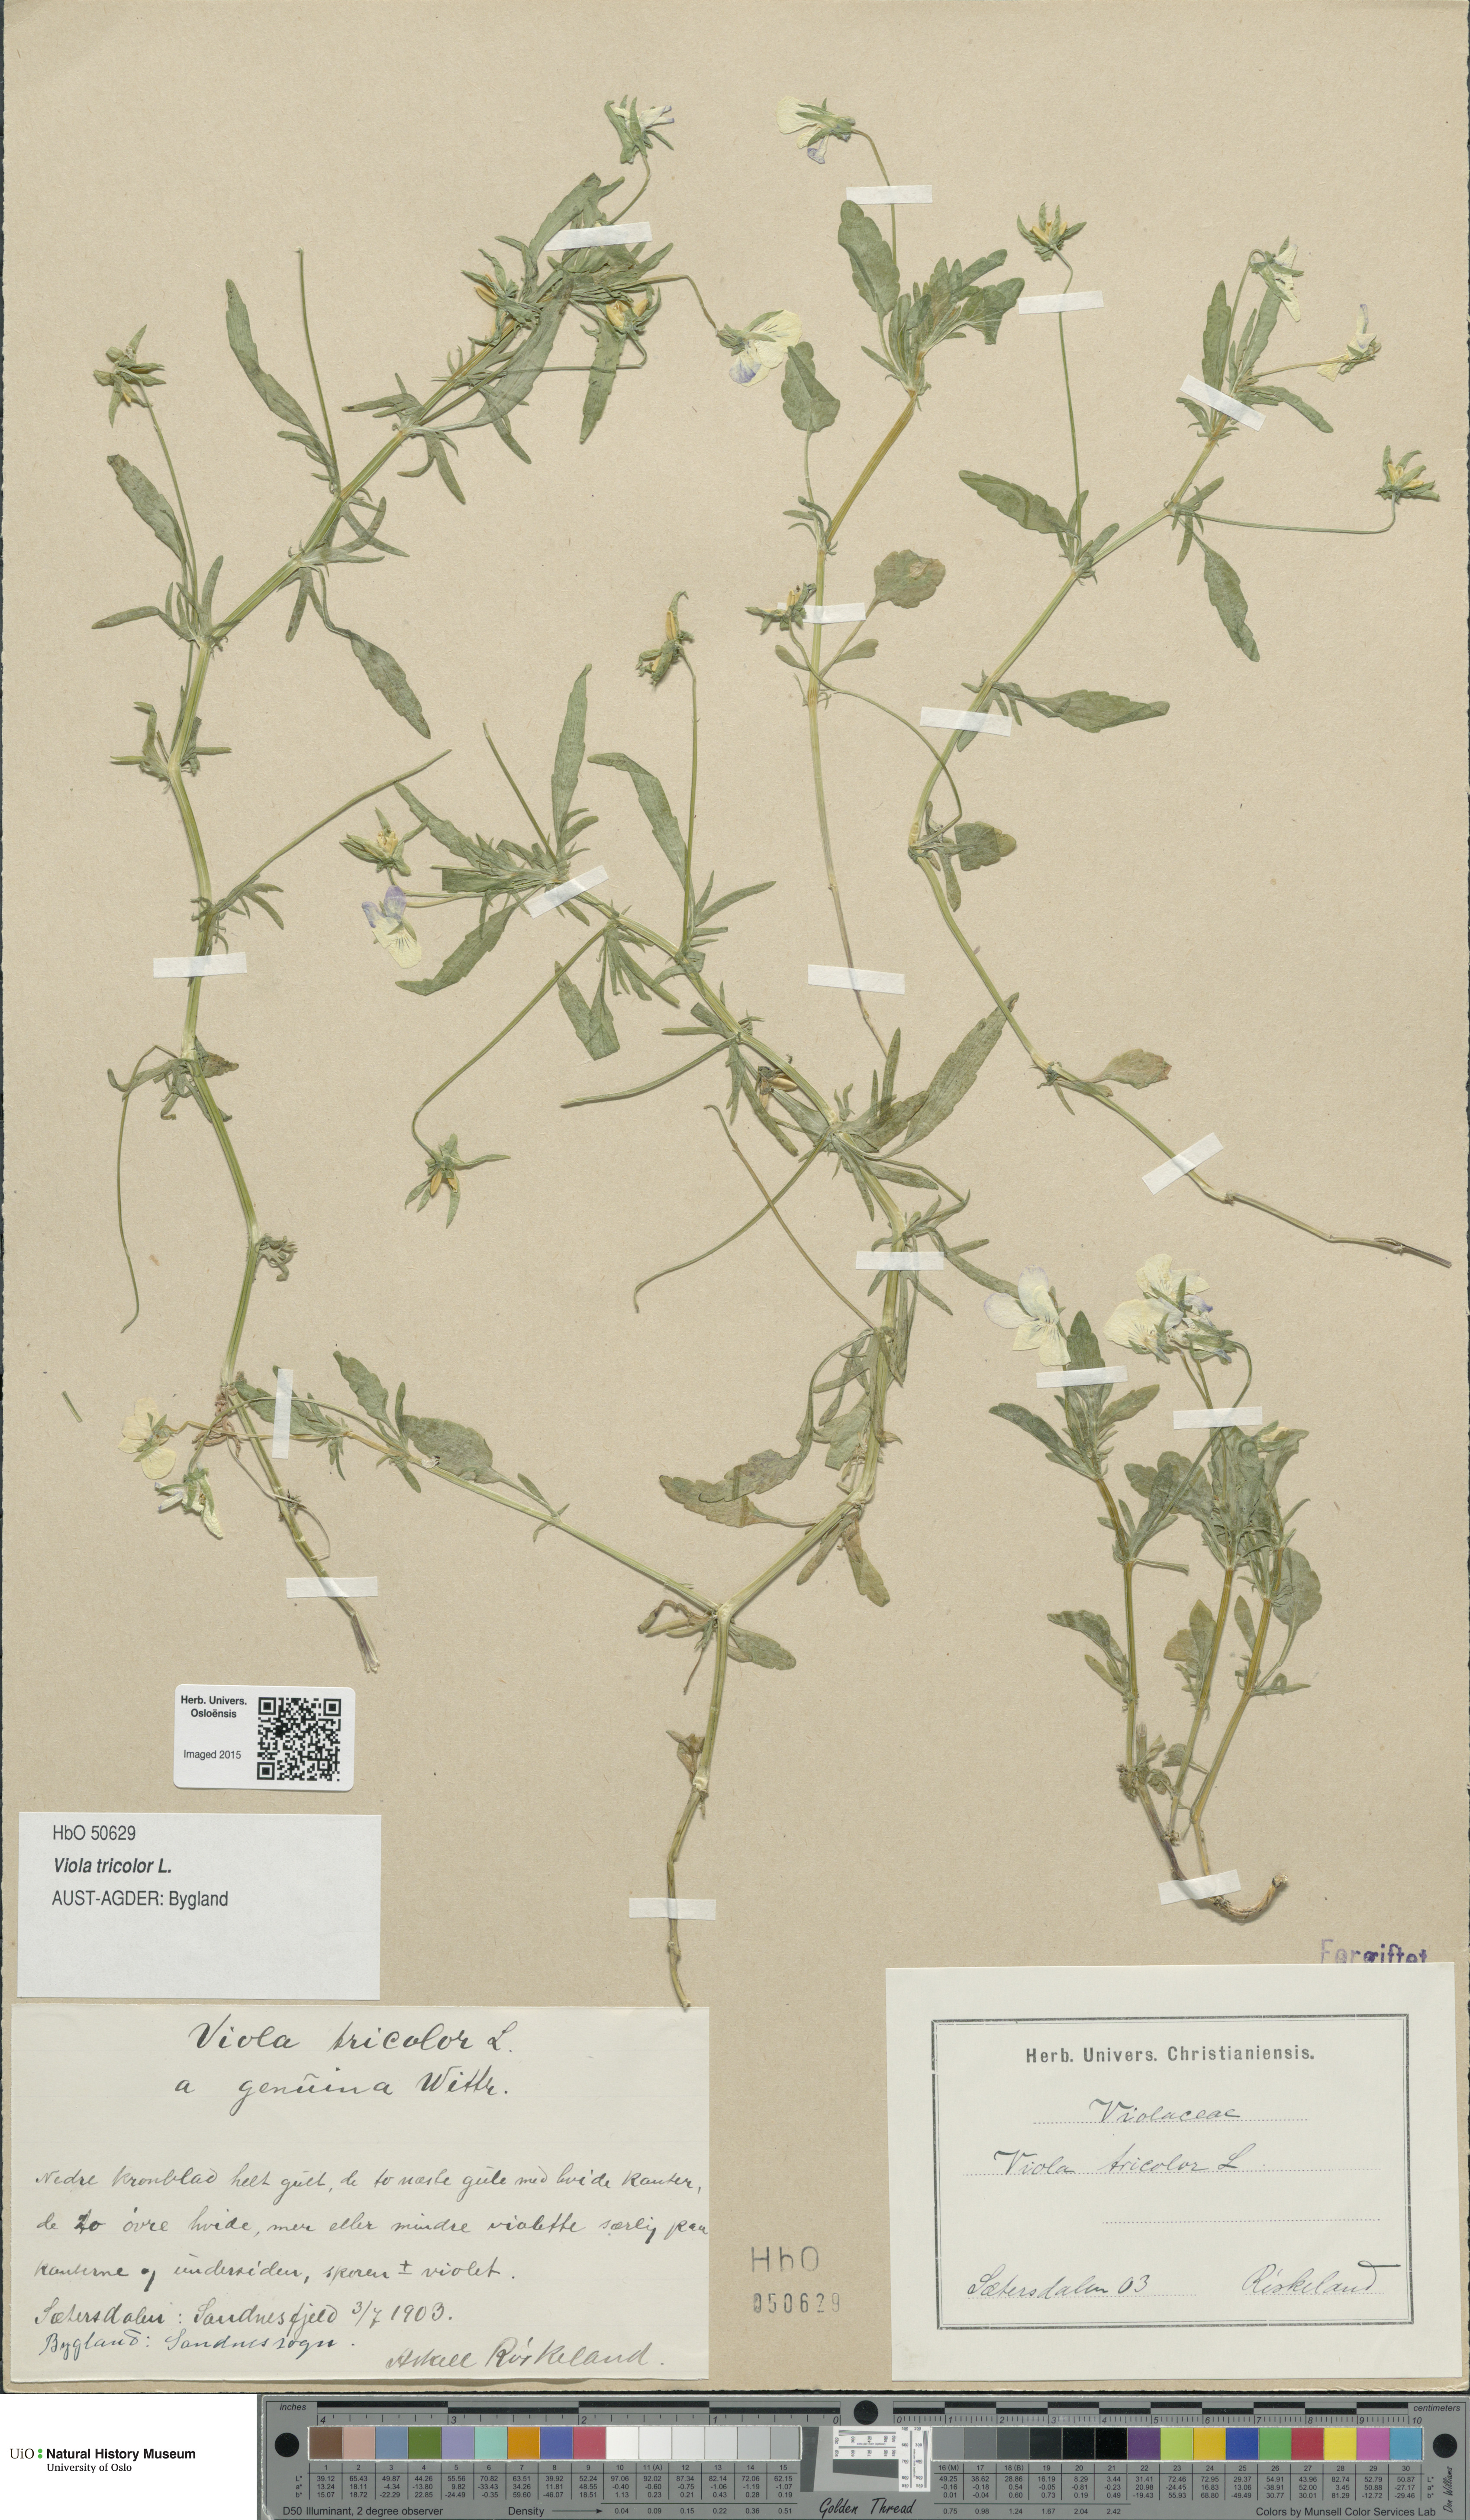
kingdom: Plantae
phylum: Tracheophyta
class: Magnoliopsida
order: Malpighiales
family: Violaceae
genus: Viola
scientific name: Viola tricolor
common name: Pansy
